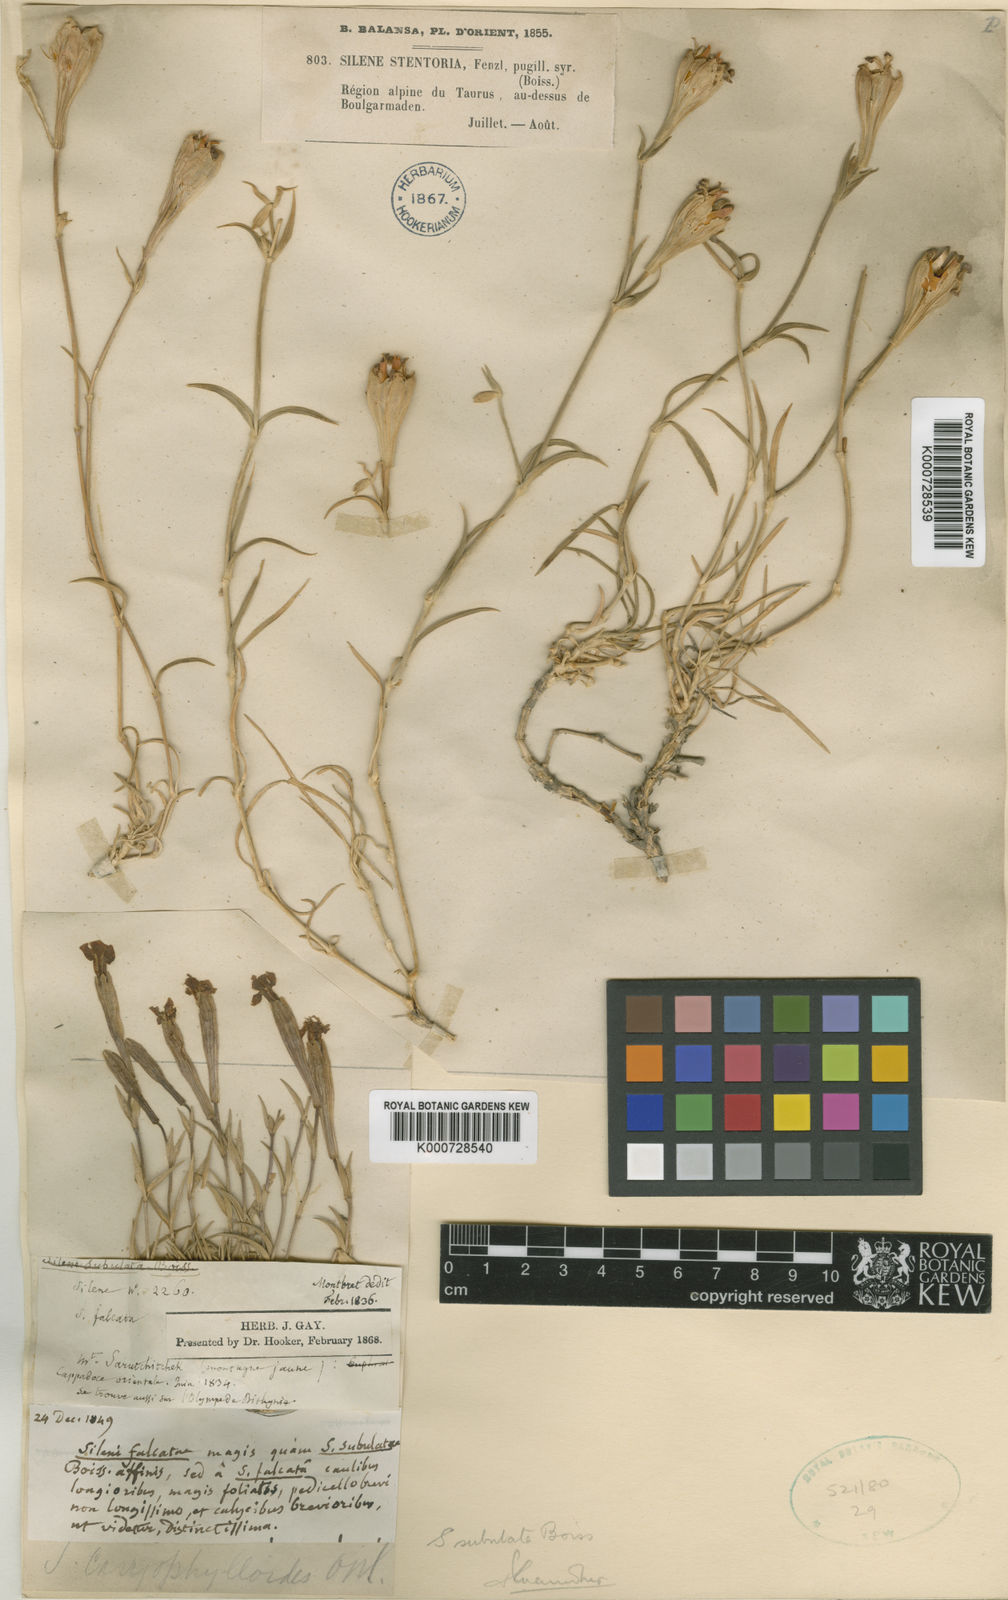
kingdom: Plantae
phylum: Tracheophyta
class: Magnoliopsida
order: Caryophyllales
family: Caryophyllaceae
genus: Silene
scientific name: Silene caryophylloides
